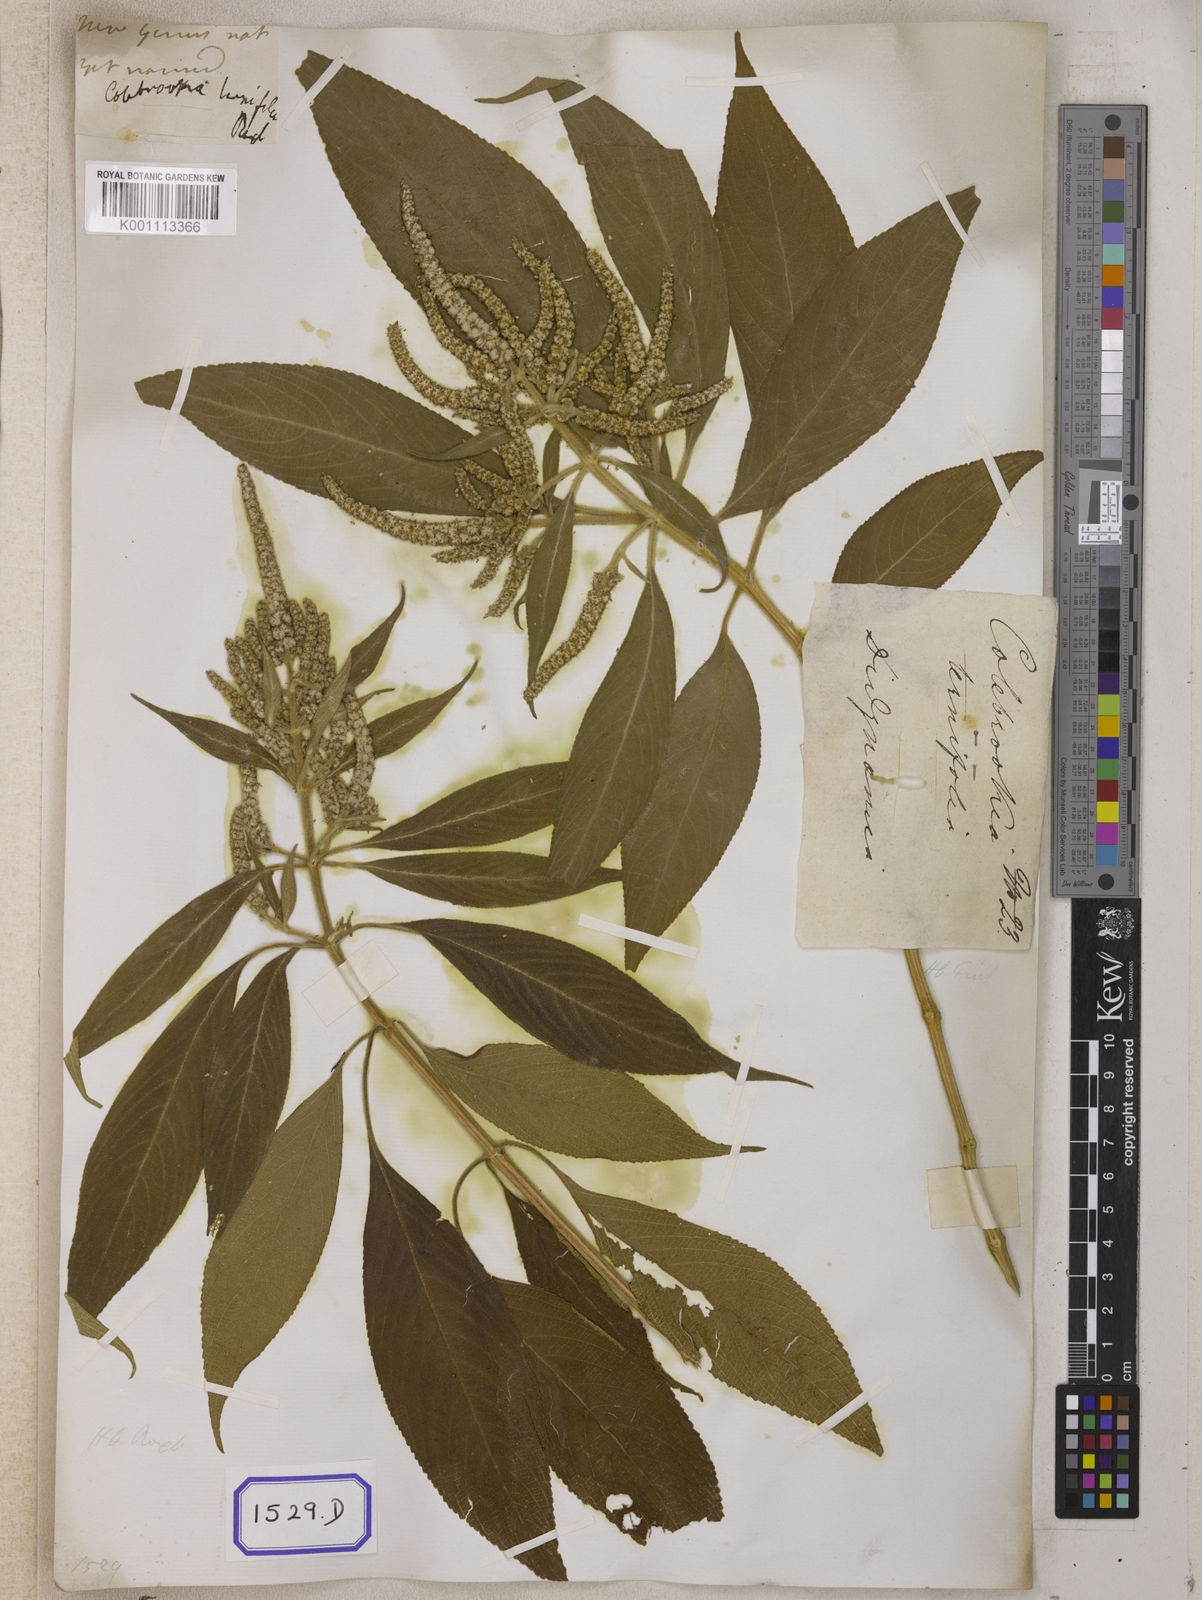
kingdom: Plantae
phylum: Tracheophyta
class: Magnoliopsida
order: Lamiales
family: Lamiaceae
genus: Colebrookea
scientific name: Colebrookea oppositifolia
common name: Indian squirrel tail
